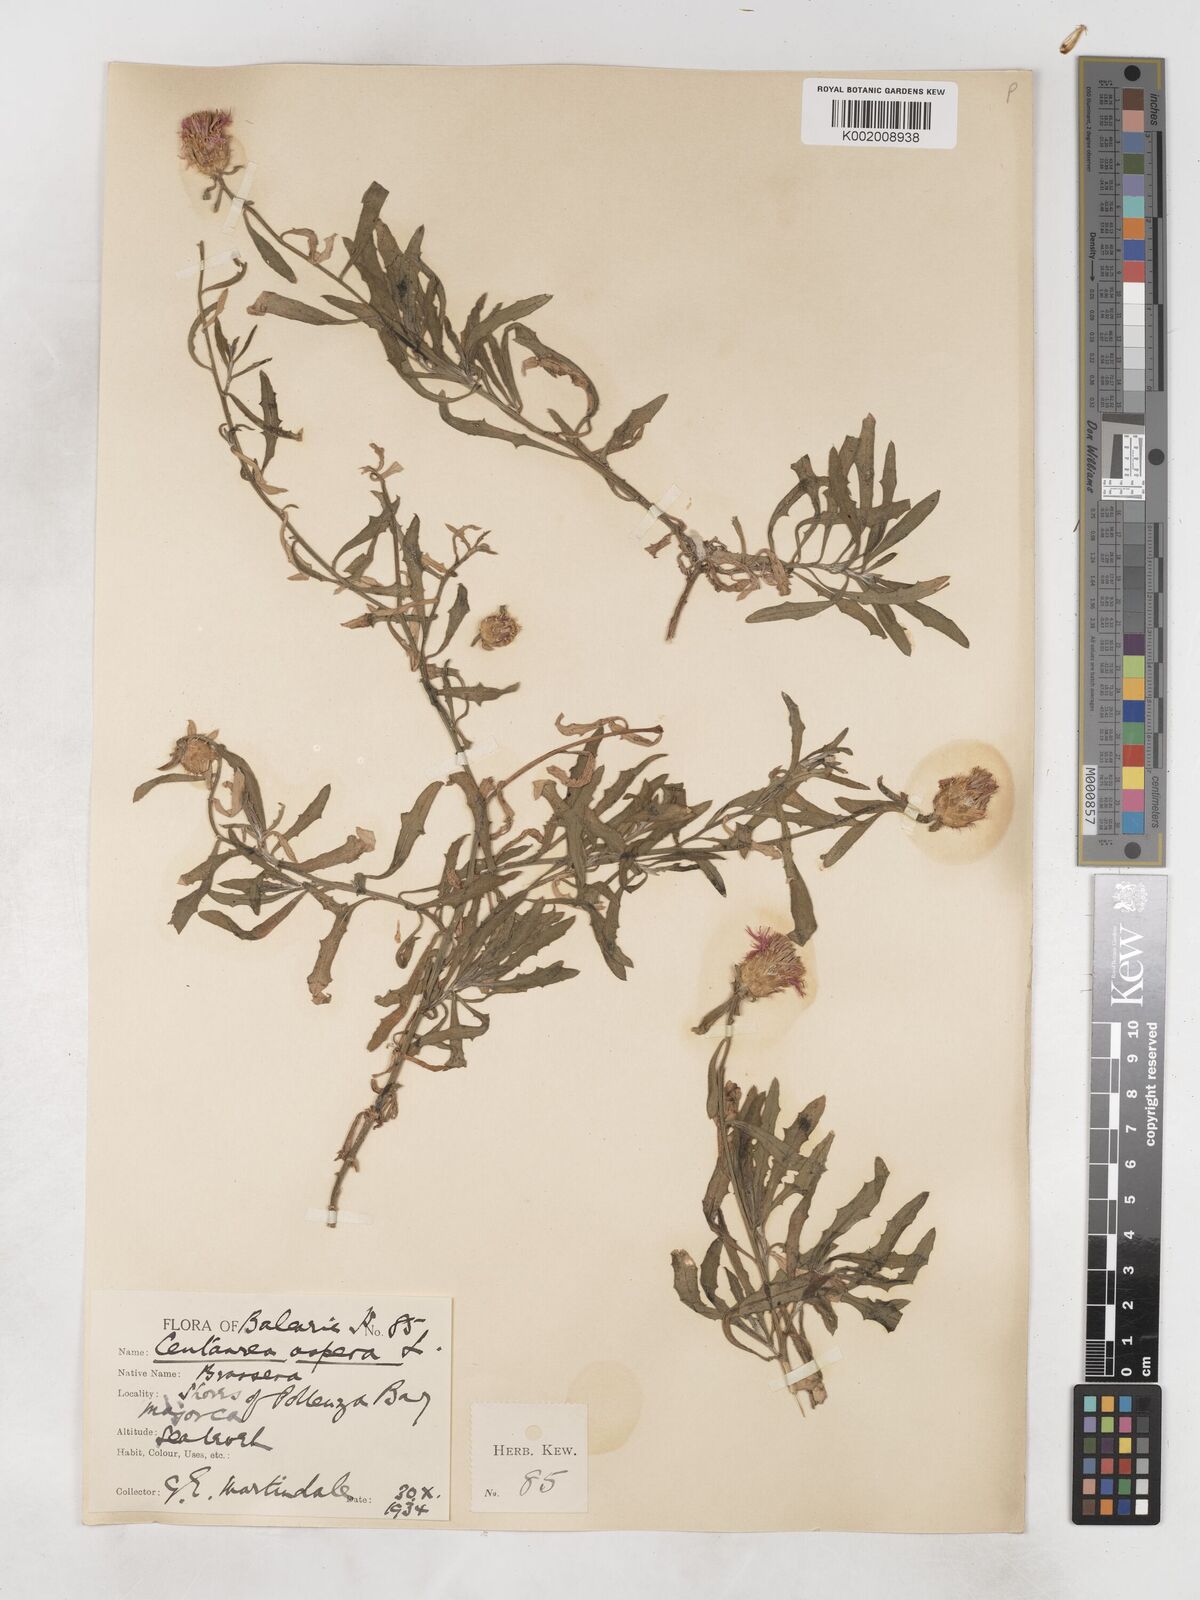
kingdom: Plantae
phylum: Tracheophyta
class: Magnoliopsida
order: Asterales
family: Asteraceae
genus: Centaurea
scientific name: Centaurea aspera
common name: Rough star-thistle
